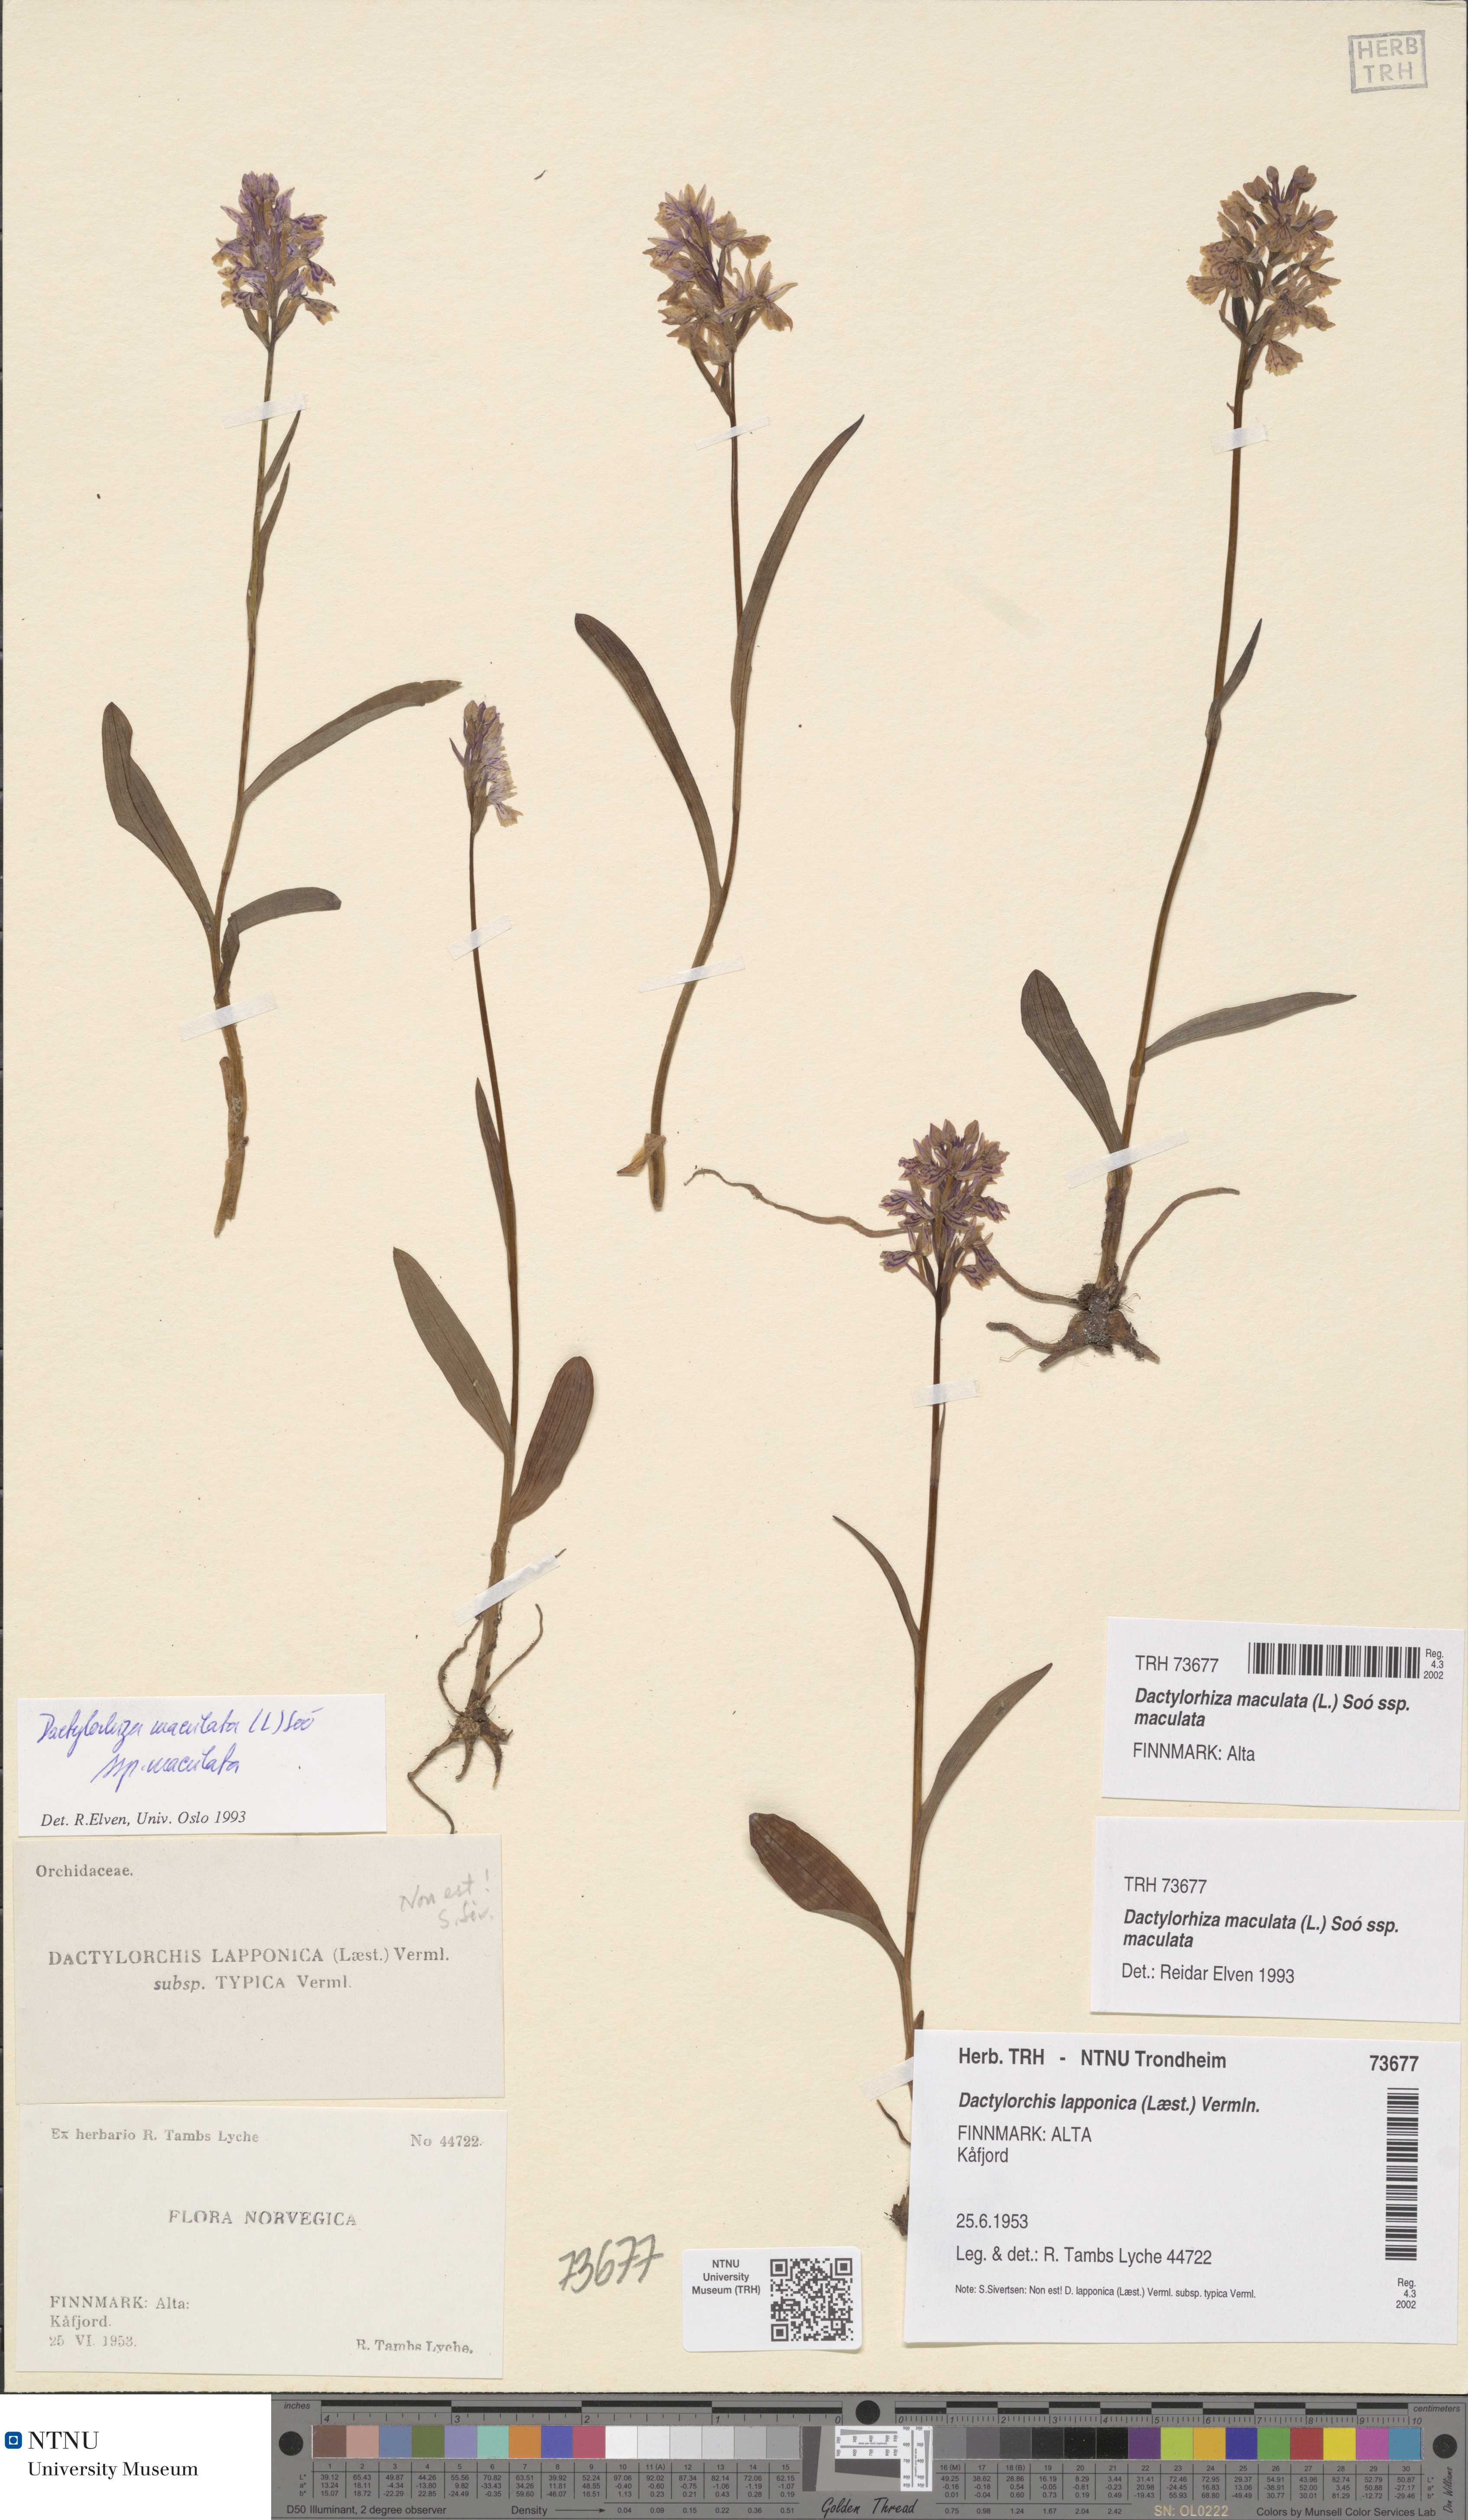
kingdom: Plantae
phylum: Tracheophyta
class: Liliopsida
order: Asparagales
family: Orchidaceae
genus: Dactylorhiza
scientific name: Dactylorhiza maculata
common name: Heath spotted-orchid
